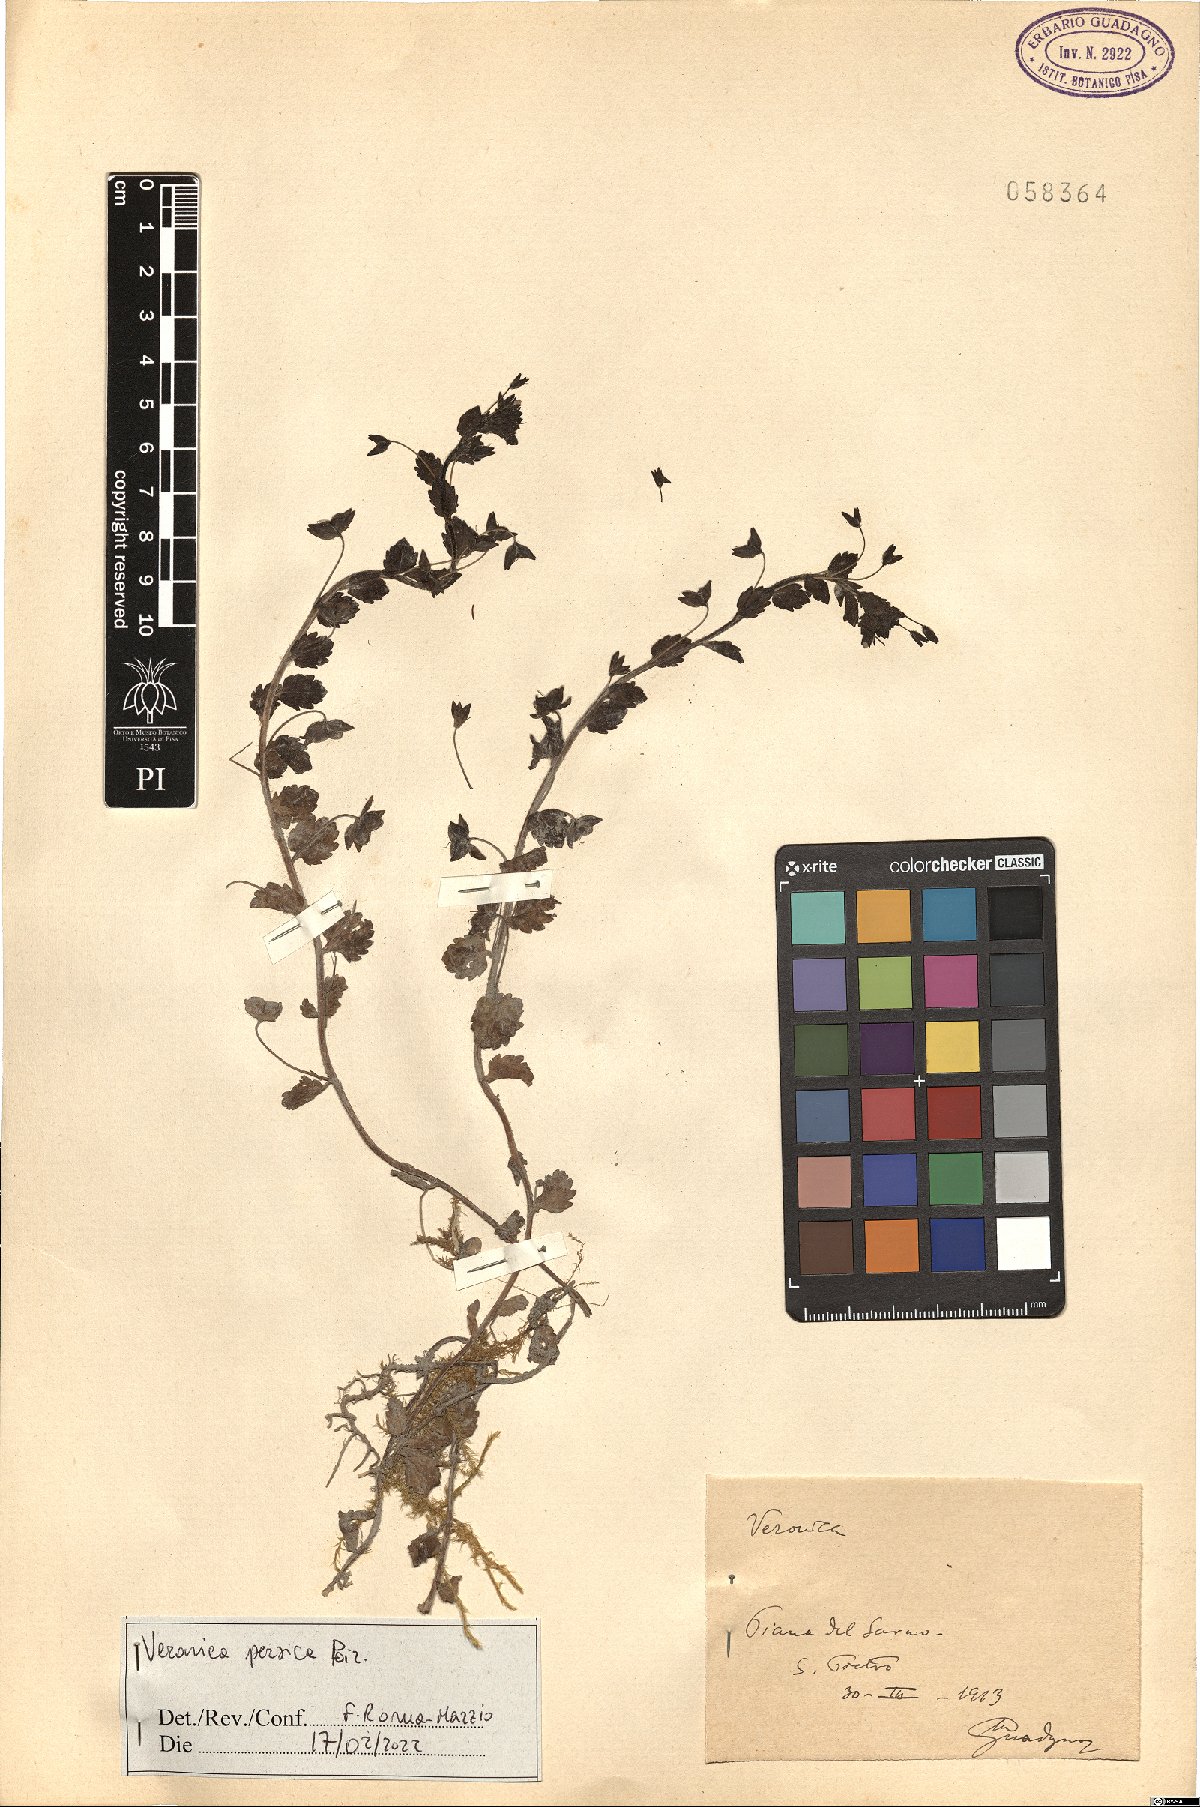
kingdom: Plantae
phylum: Tracheophyta
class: Magnoliopsida
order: Lamiales
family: Plantaginaceae
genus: Veronica
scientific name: Veronica persica
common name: Common field-speedwell
